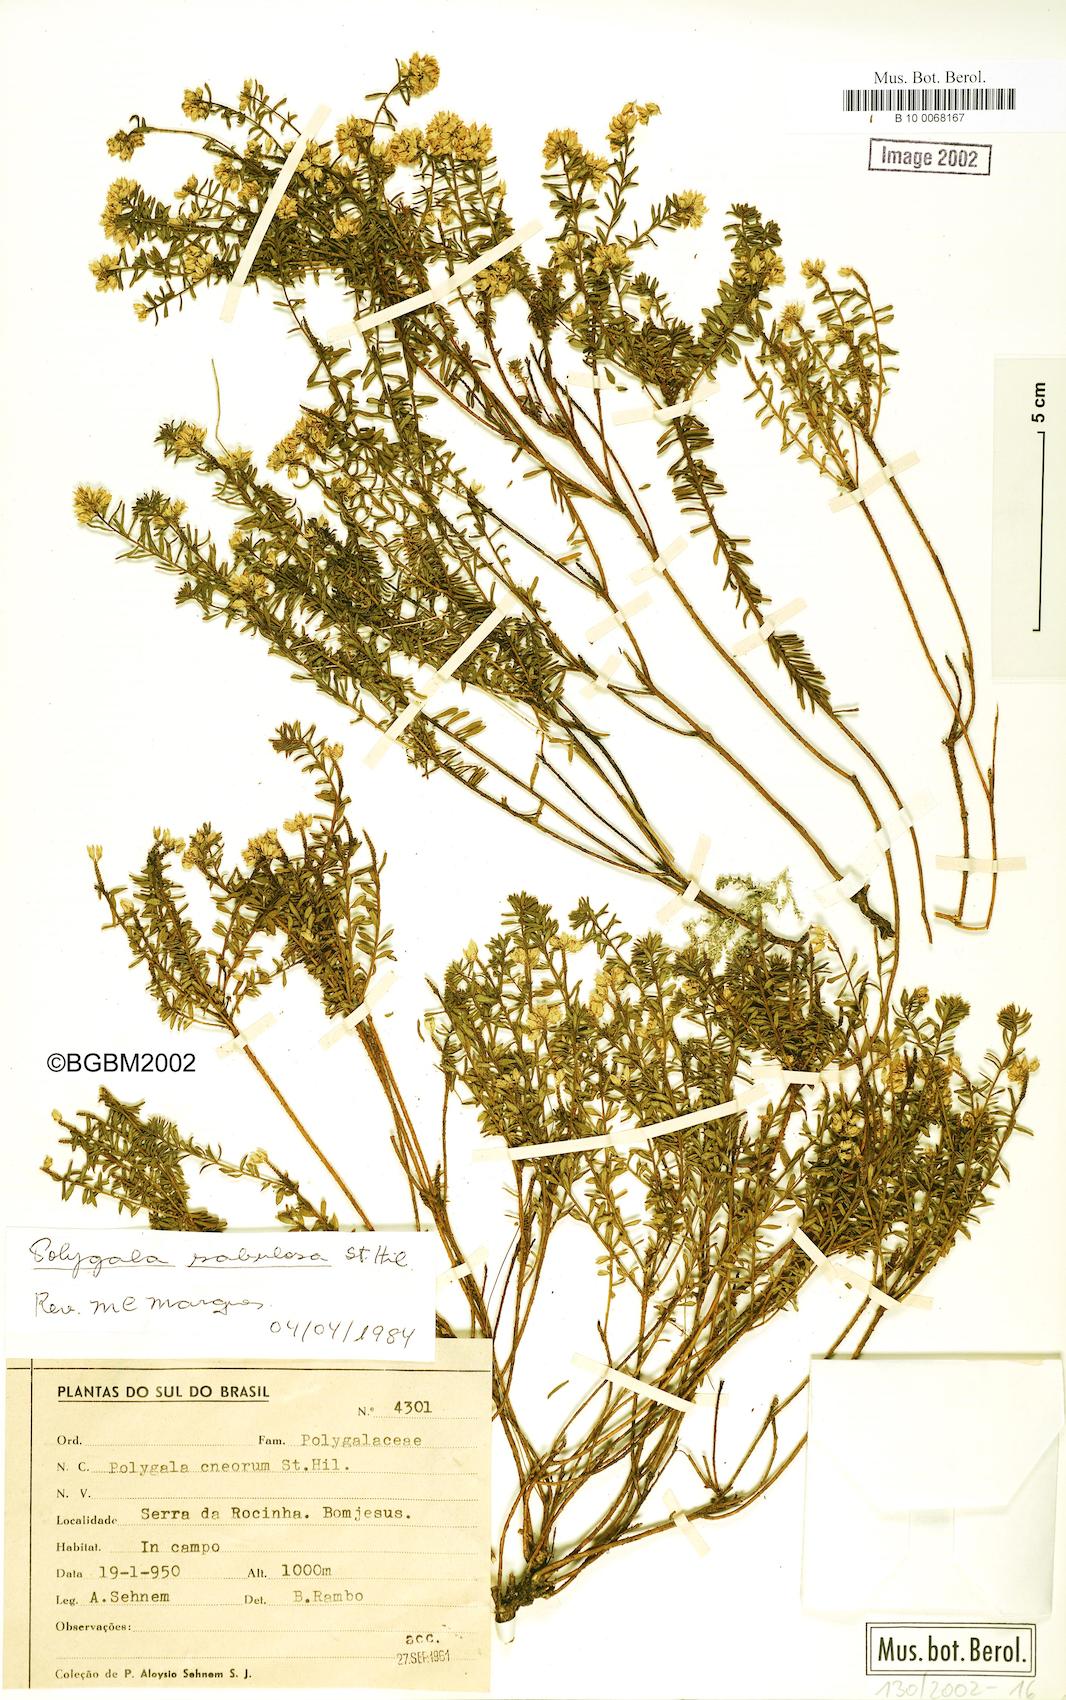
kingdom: Plantae
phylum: Tracheophyta
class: Magnoliopsida
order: Fabales
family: Polygalaceae
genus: Polygala
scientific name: Polygala sellowiana
